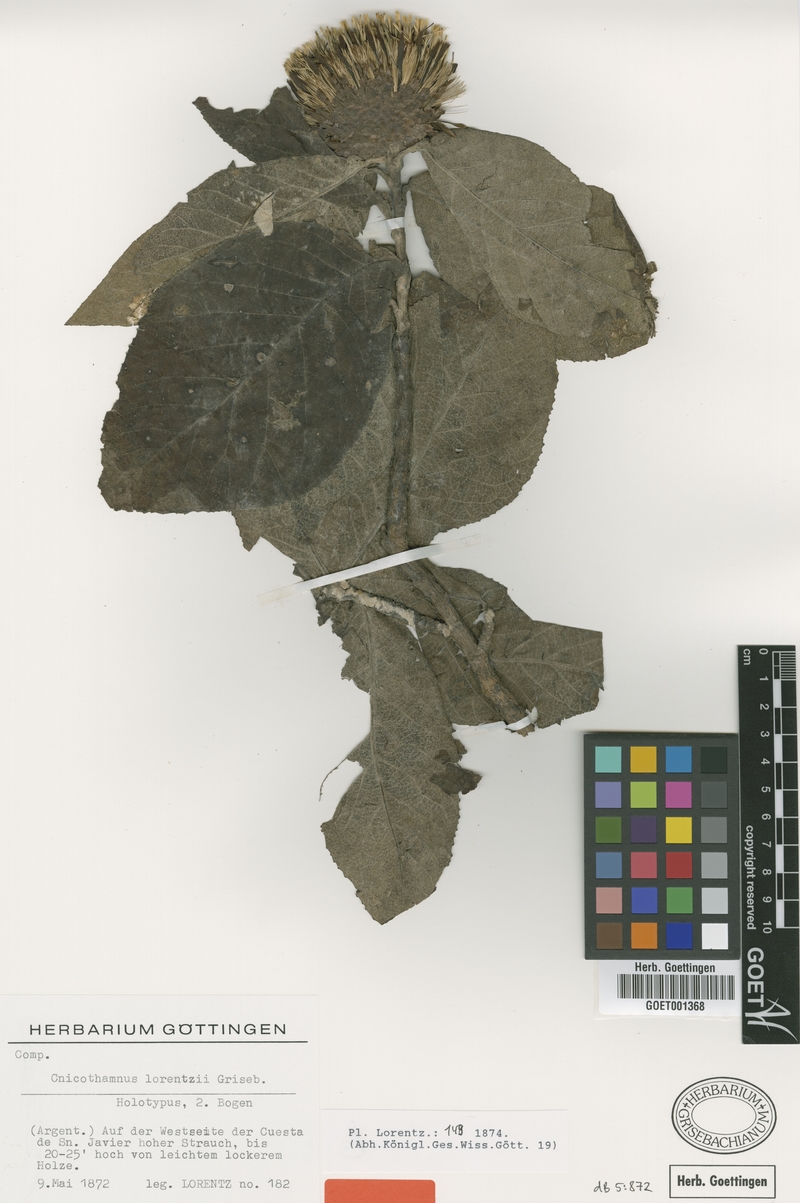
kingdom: Plantae
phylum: Tracheophyta
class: Magnoliopsida
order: Asterales
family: Asteraceae
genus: Cnicothamnus
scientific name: Cnicothamnus lorentzii
